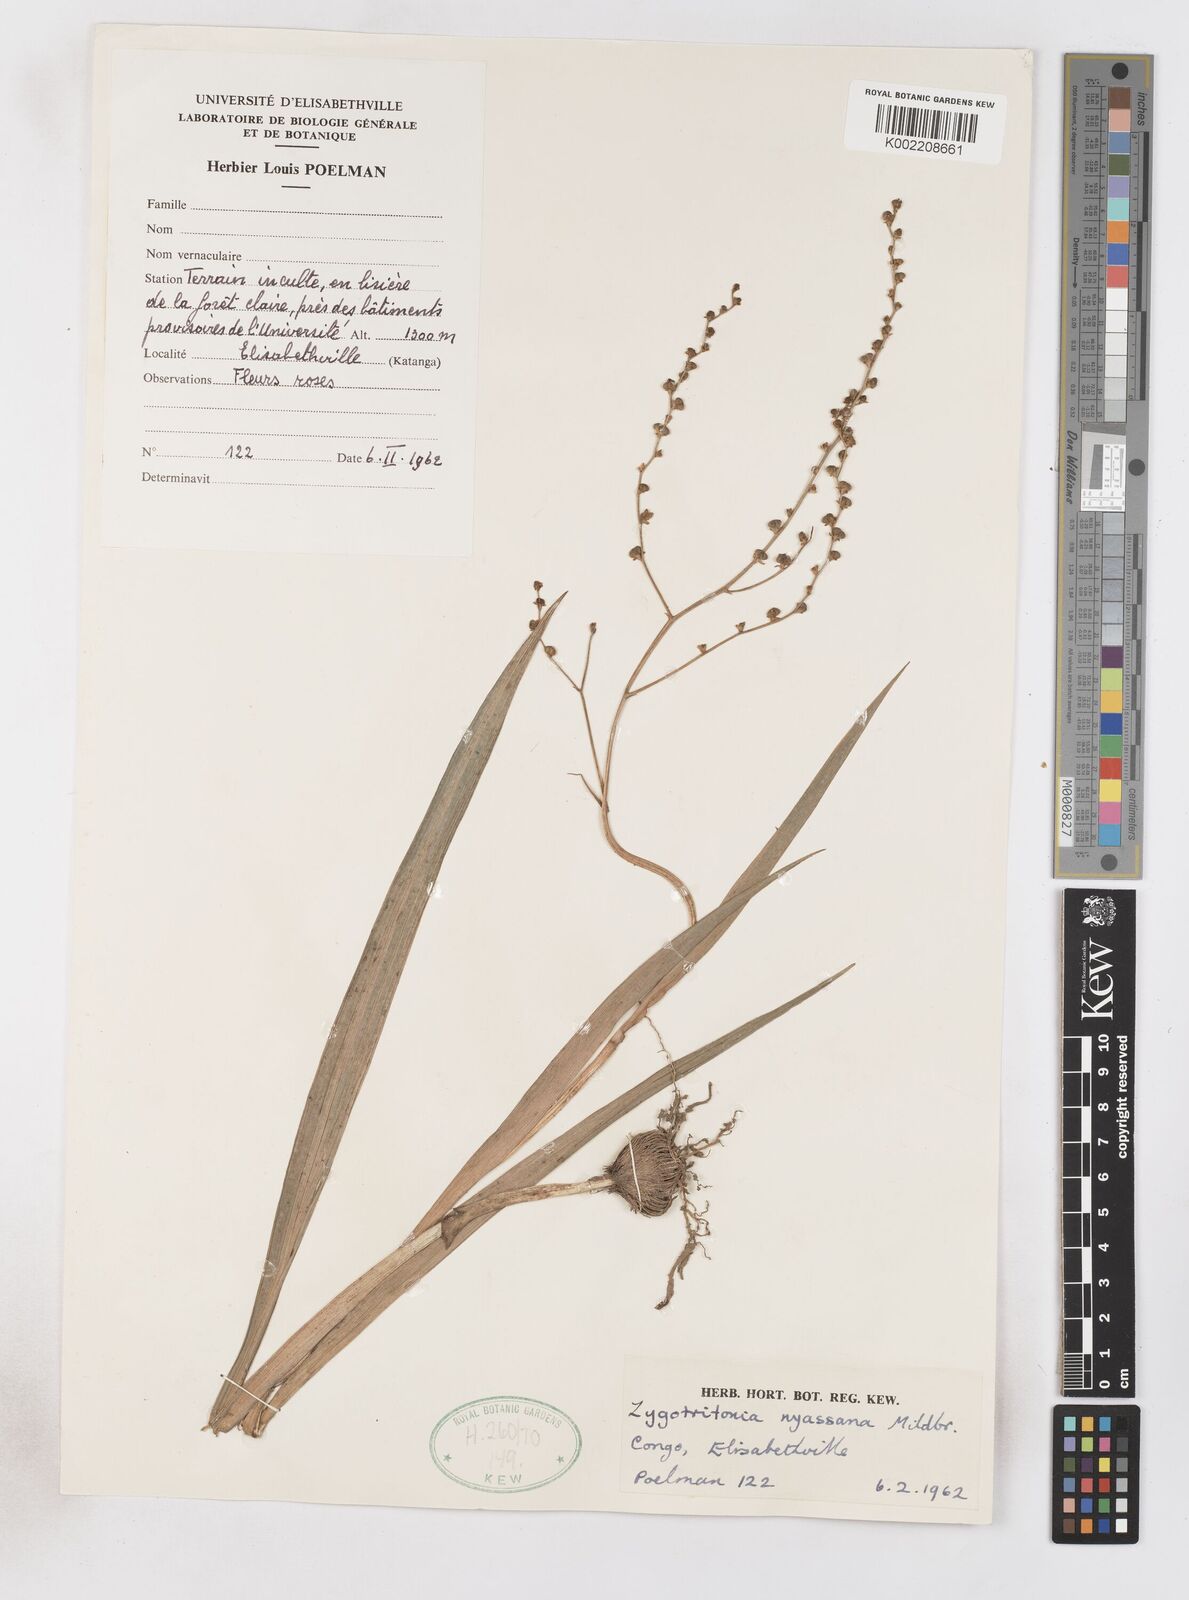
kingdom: Plantae
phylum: Tracheophyta
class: Liliopsida
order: Asparagales
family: Iridaceae
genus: Zygotritonia
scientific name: Zygotritonia nyassana
